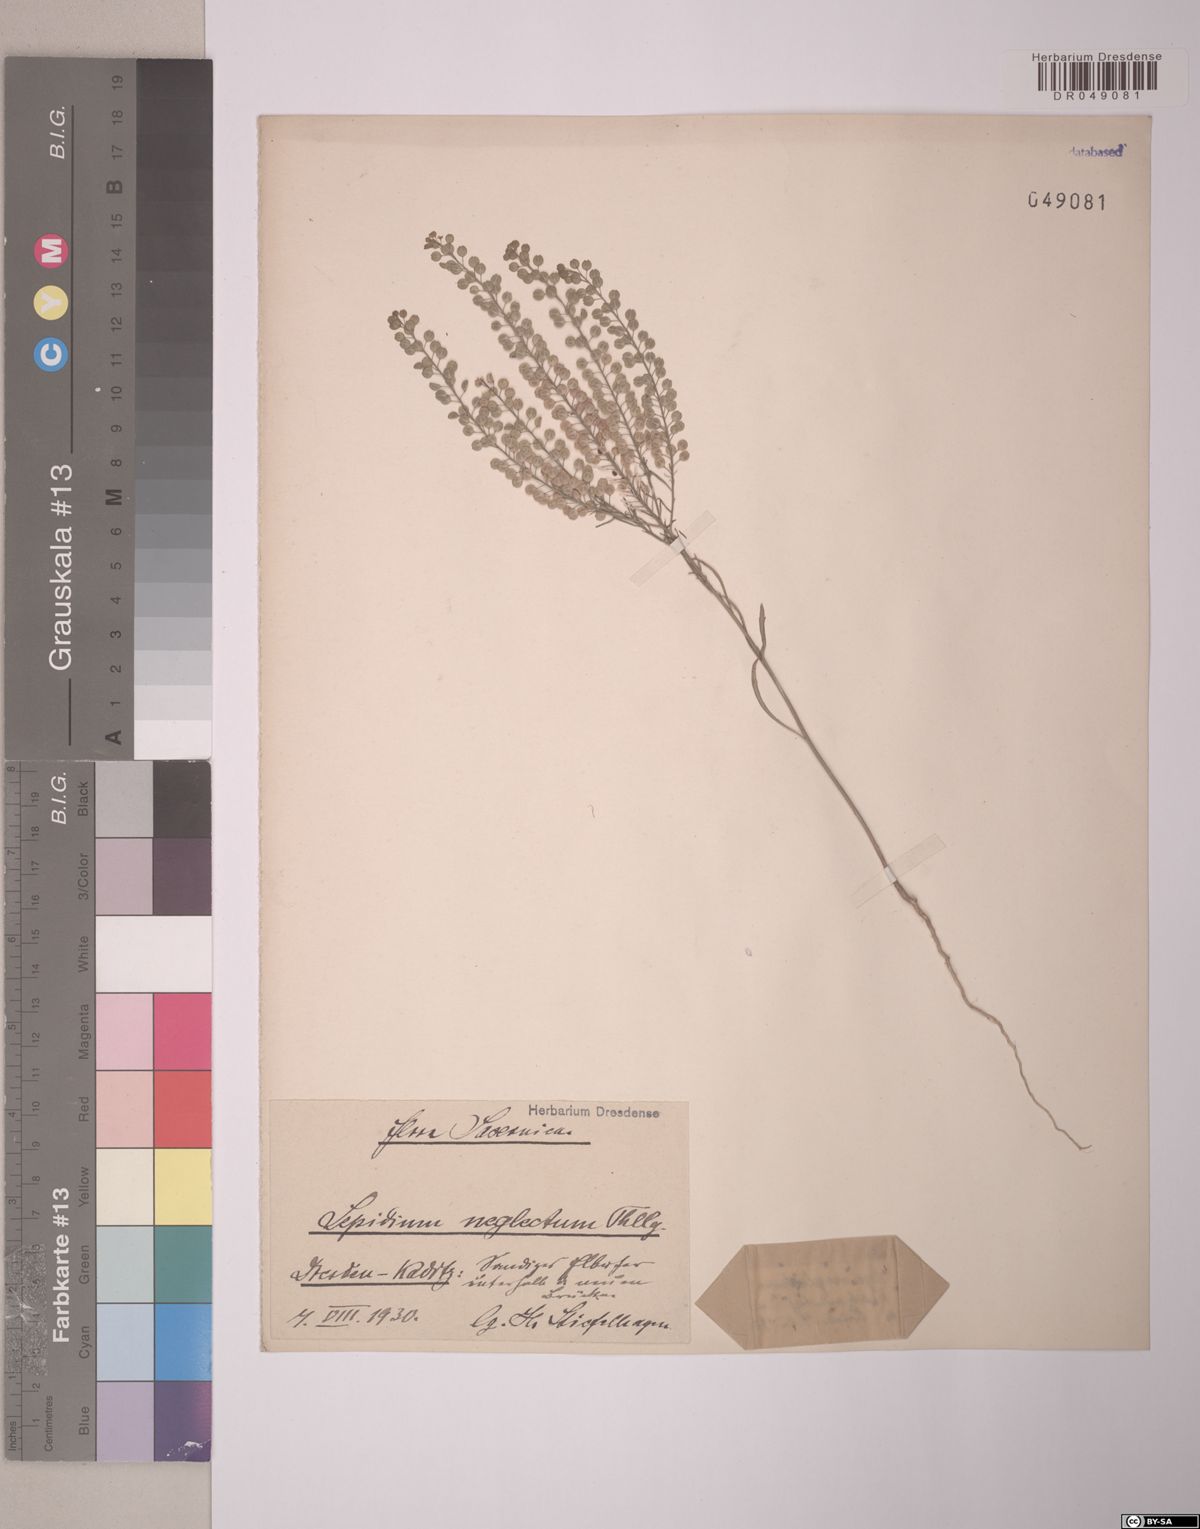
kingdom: Plantae
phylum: Tracheophyta
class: Magnoliopsida
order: Brassicales
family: Brassicaceae
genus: Lepidium
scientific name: Lepidium densiflorum
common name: Miner's pepperwort
